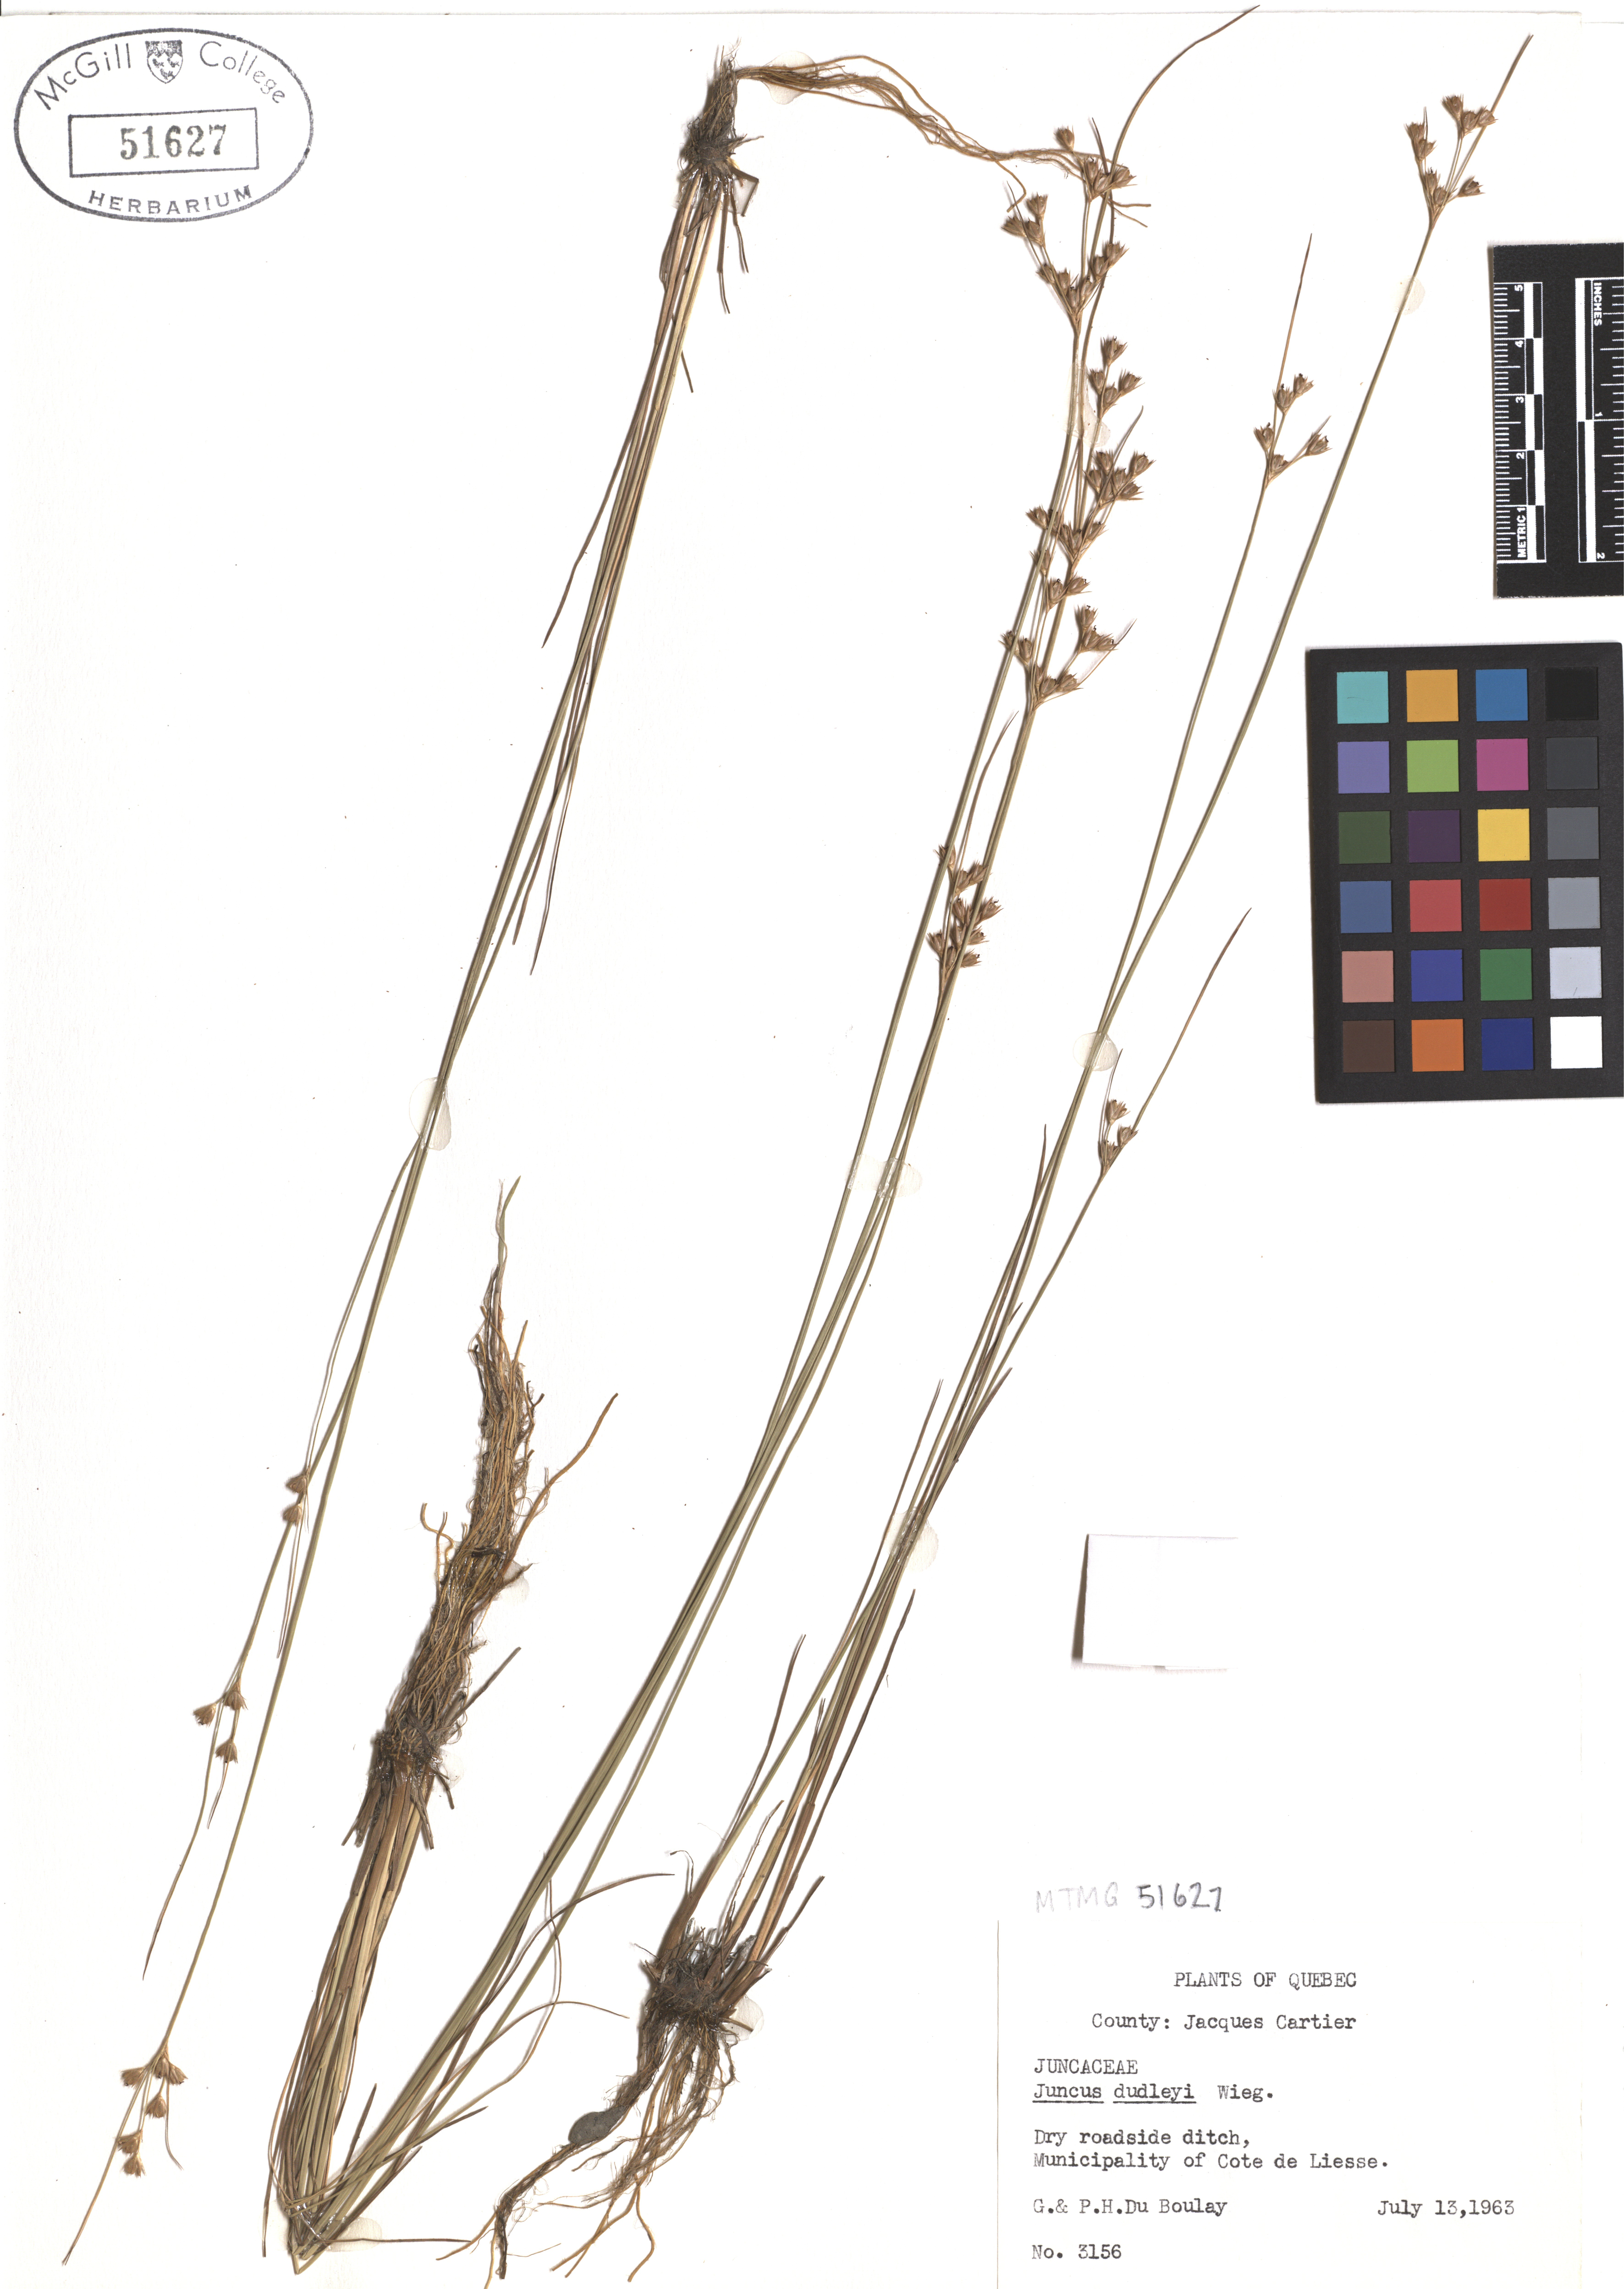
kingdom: Plantae
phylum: Tracheophyta
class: Liliopsida
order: Poales
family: Juncaceae
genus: Juncus
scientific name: Juncus dudleyi
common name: Dudley's rush
